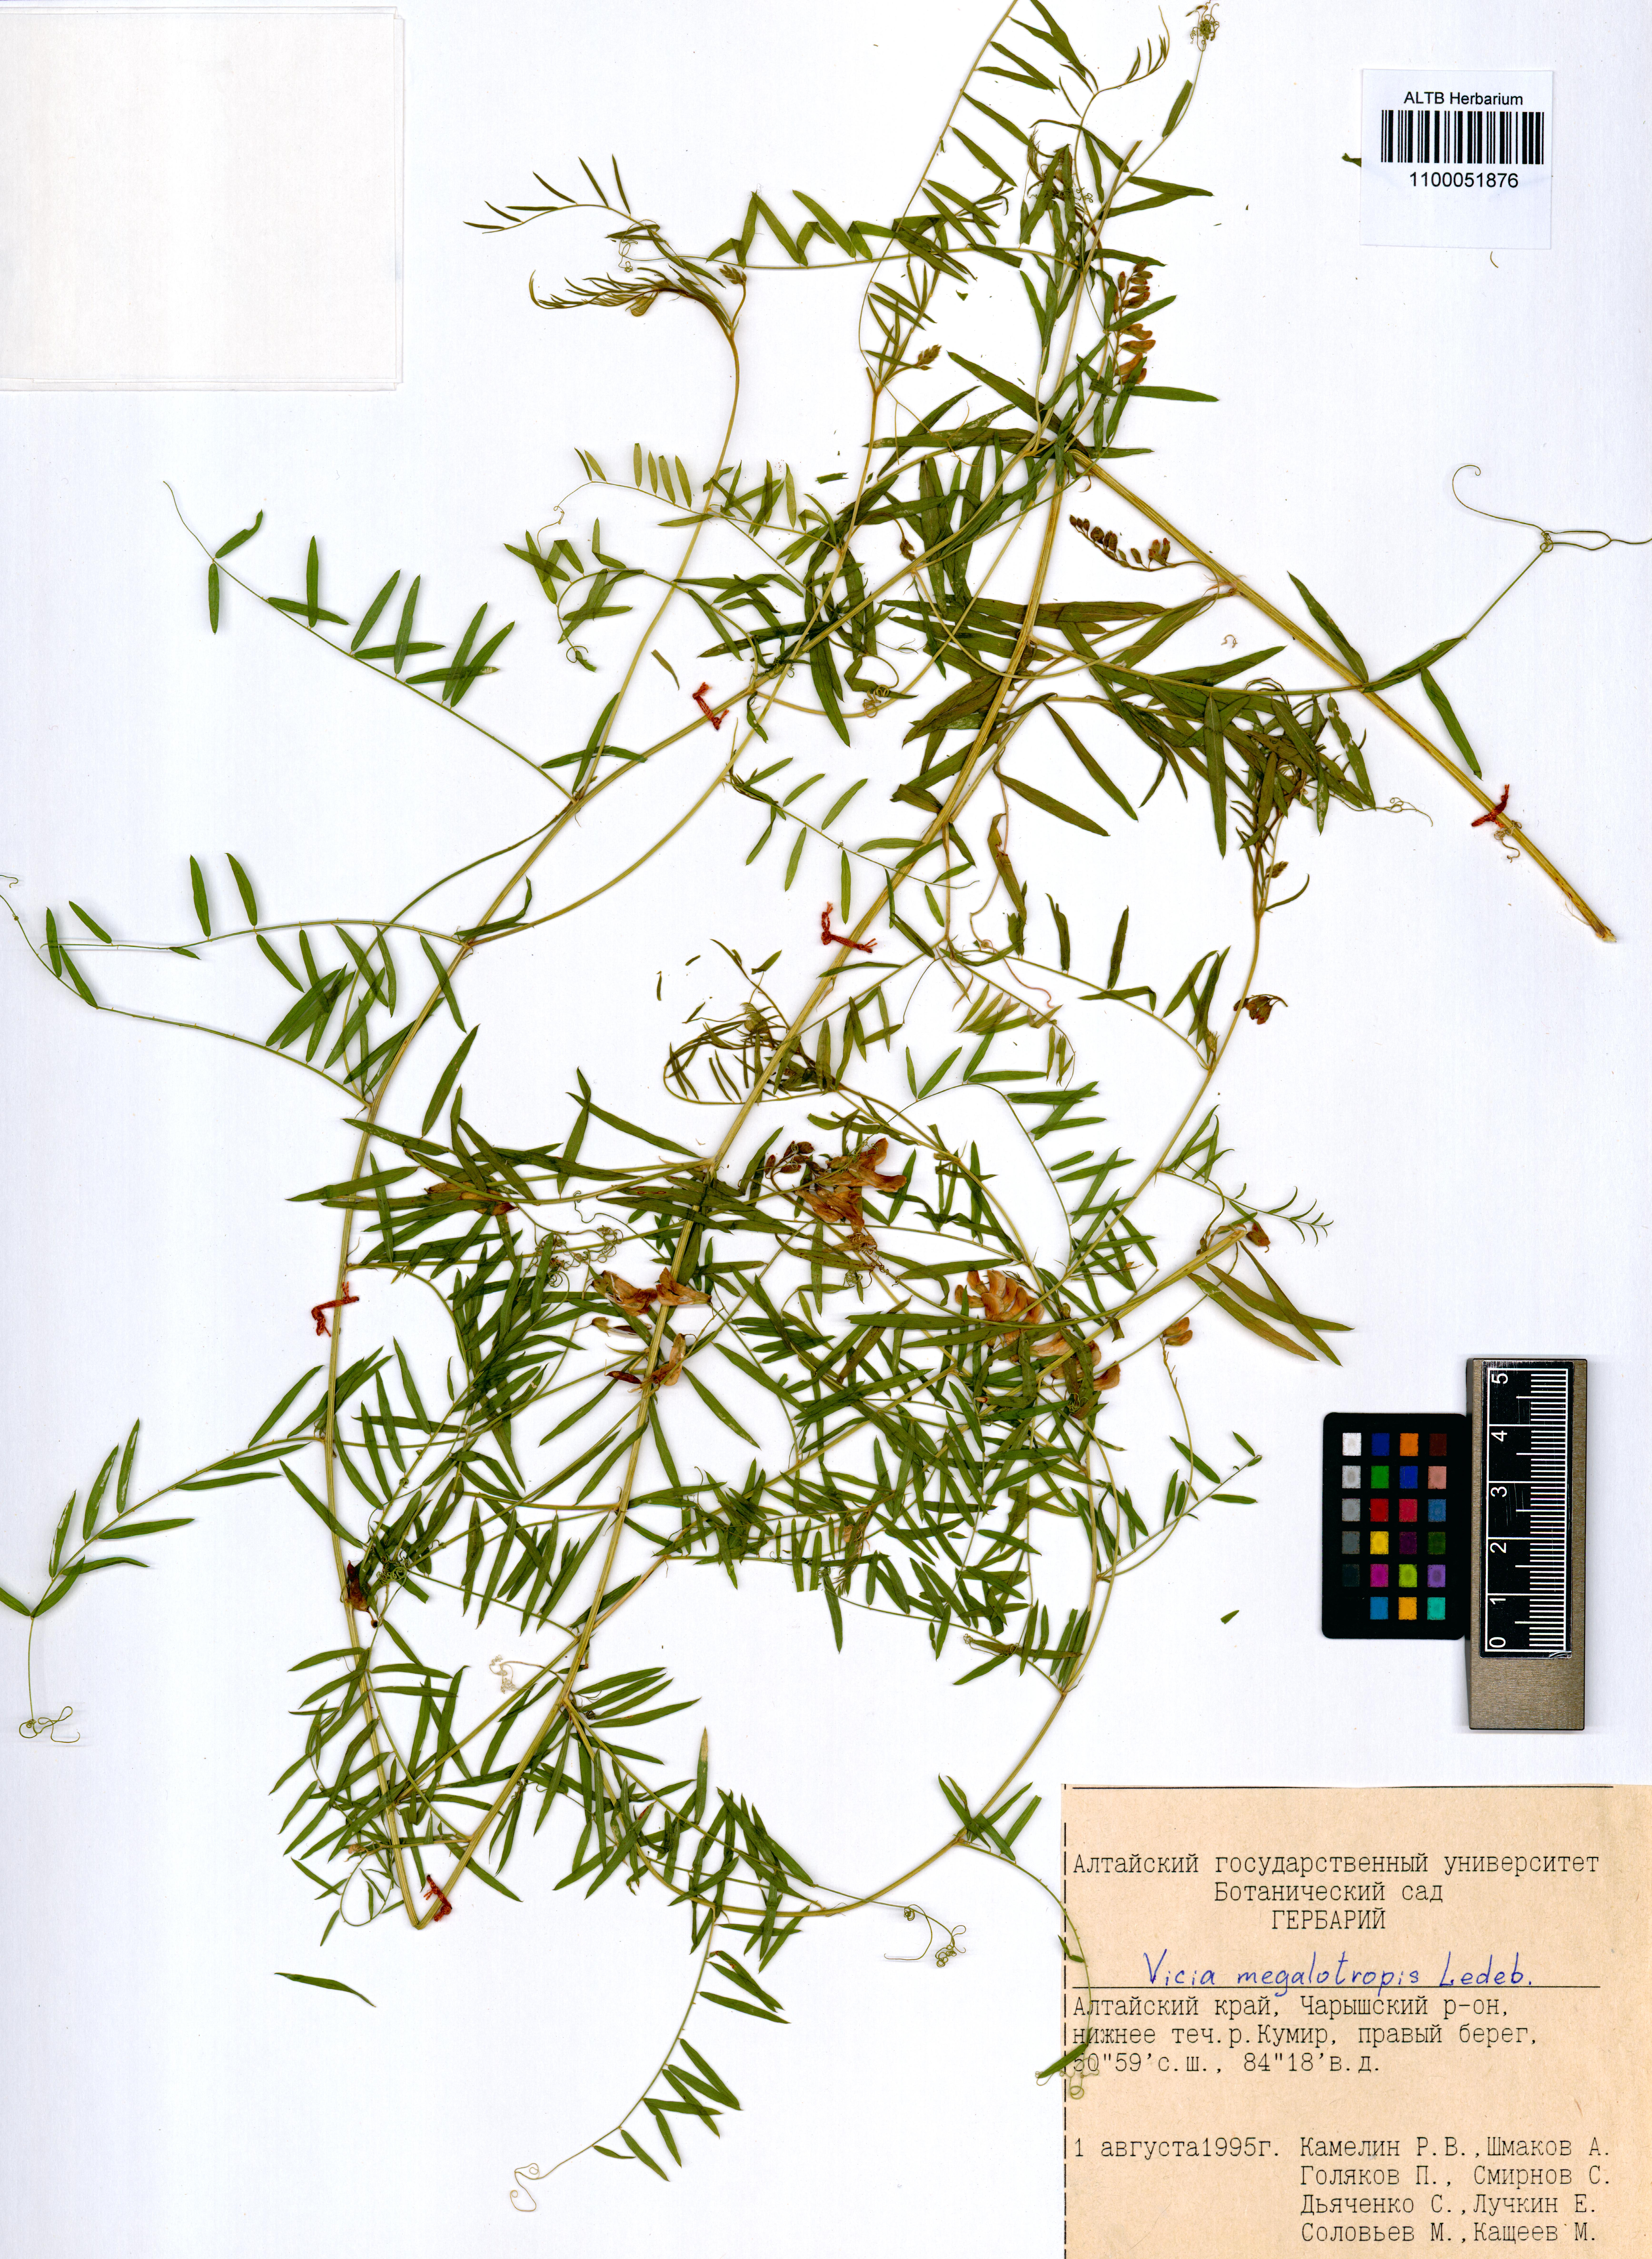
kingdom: Plantae
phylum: Tracheophyta
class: Magnoliopsida
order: Fabales
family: Fabaceae
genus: Vicia
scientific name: Vicia megalotropis
